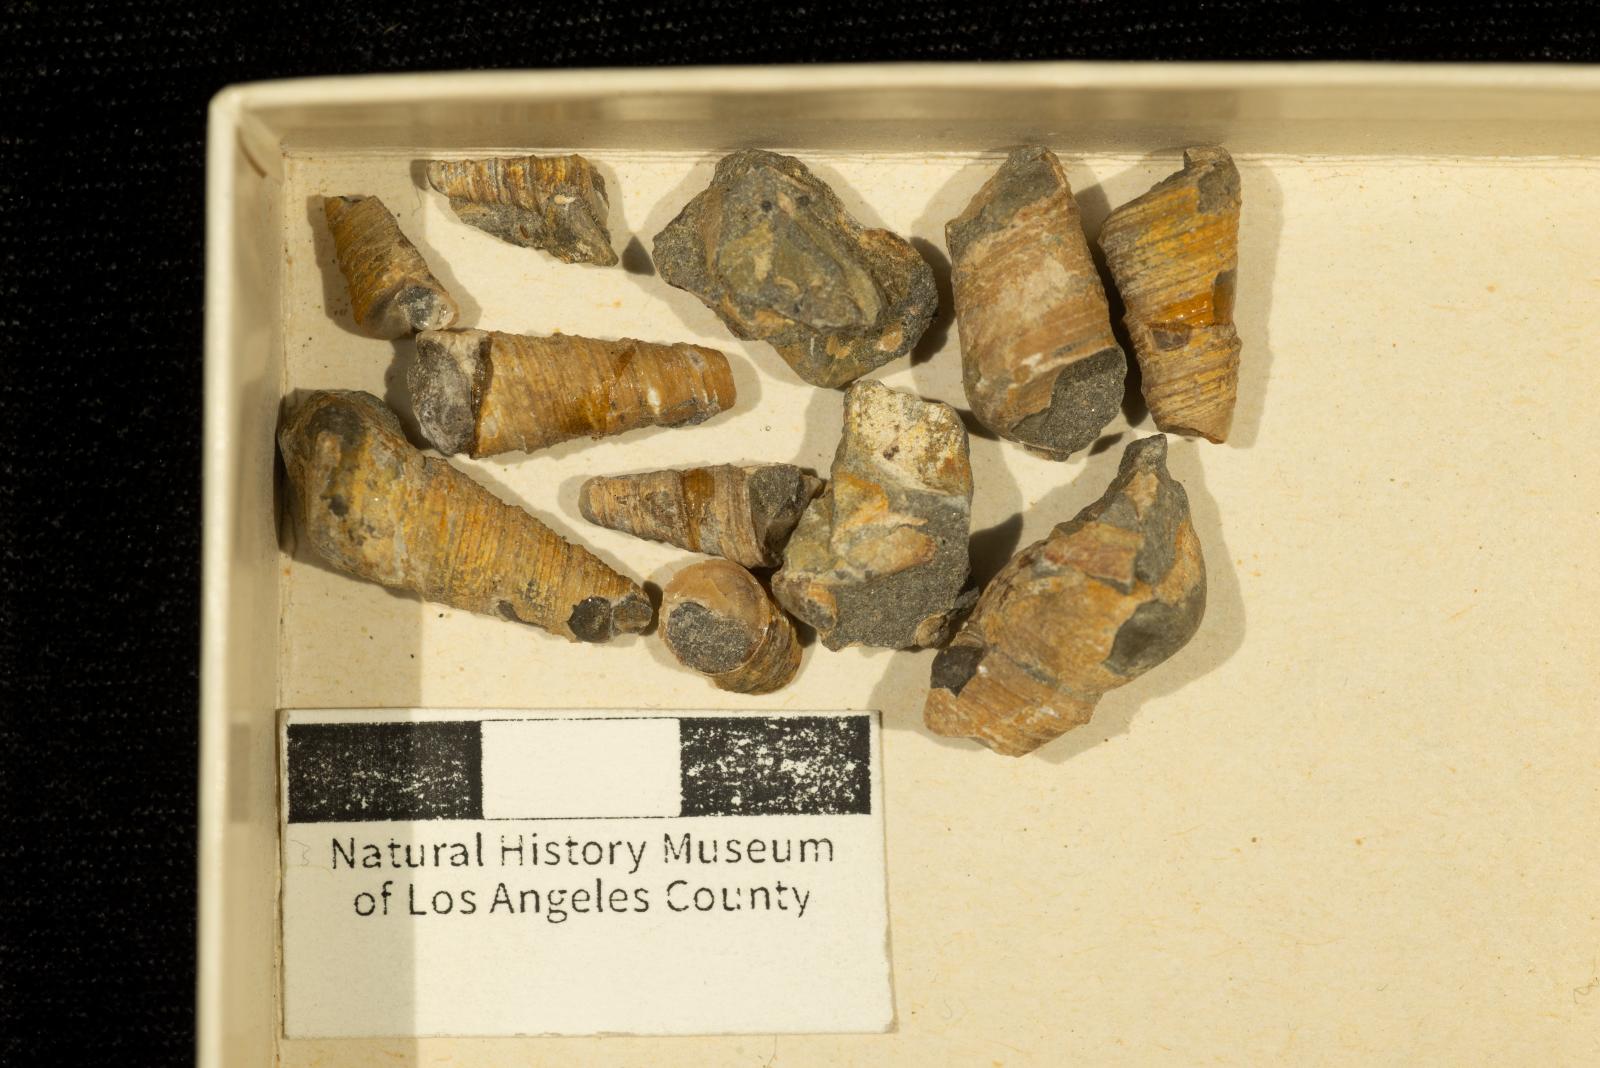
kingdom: Animalia
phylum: Mollusca
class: Gastropoda
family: Turritellidae
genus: Turritella
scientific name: Turritella iota
